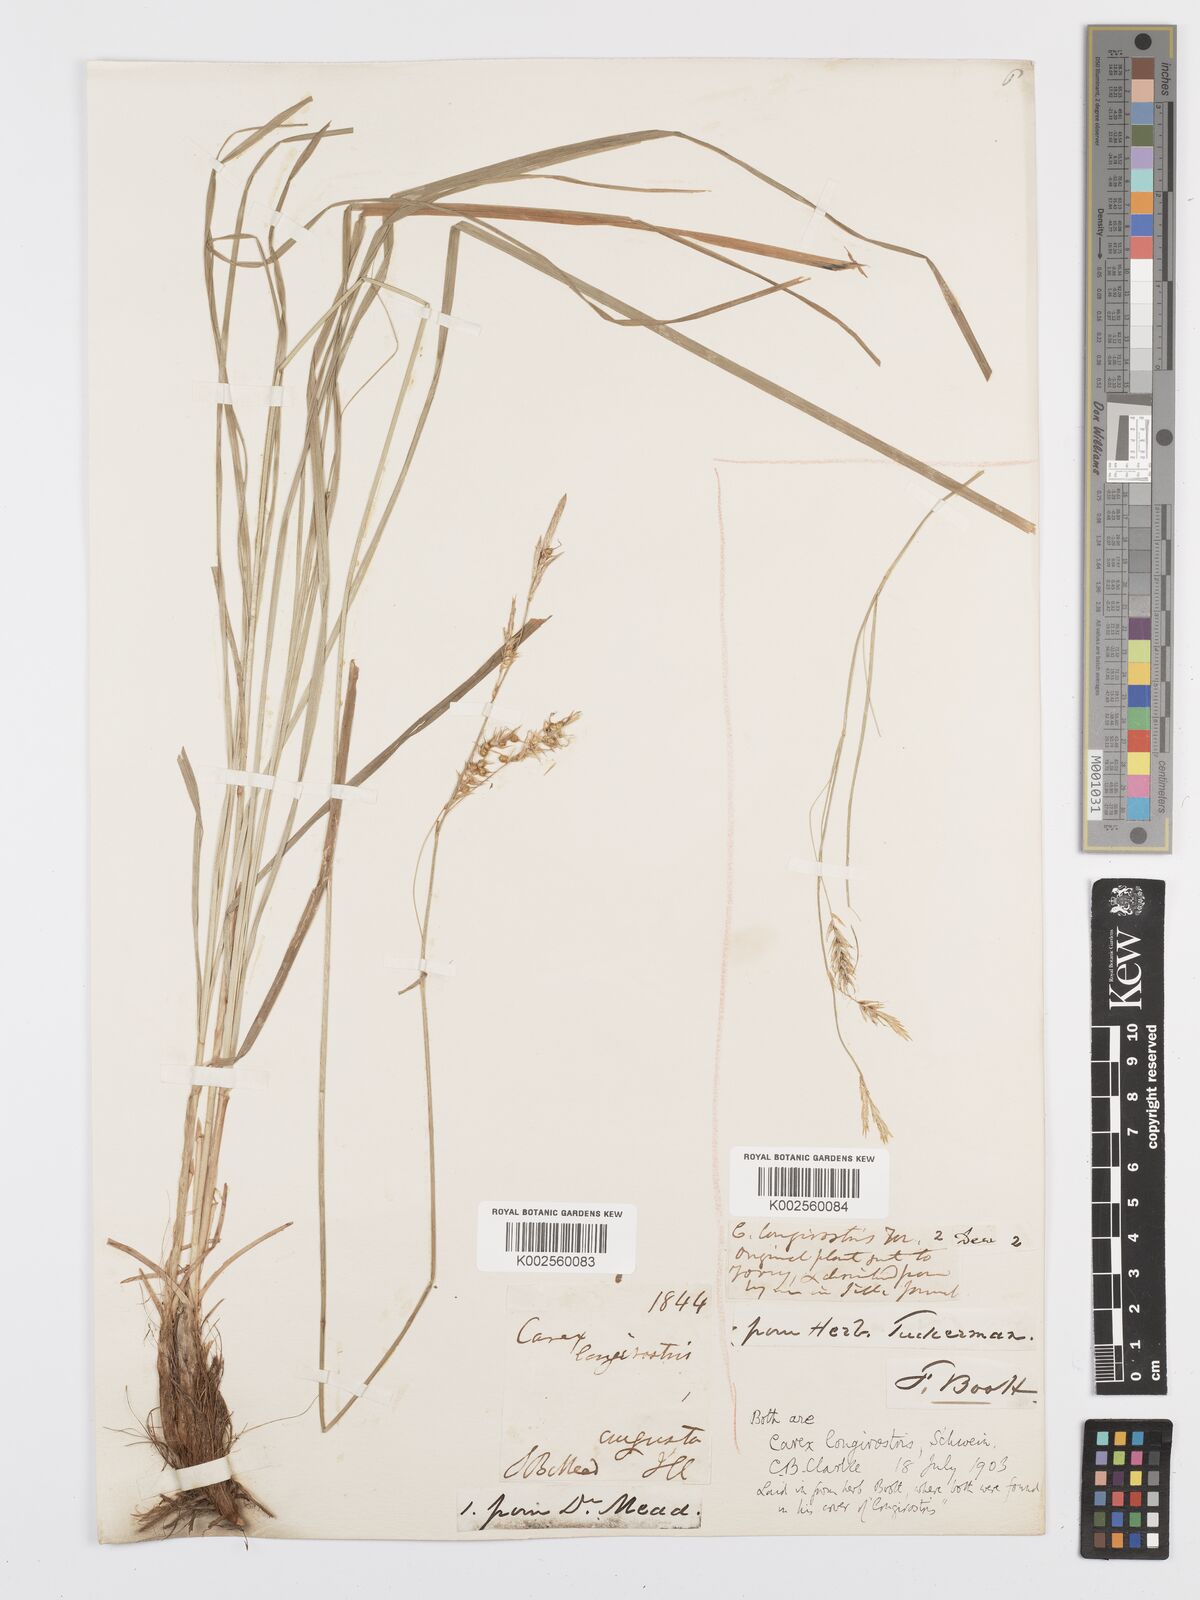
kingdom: Plantae
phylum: Tracheophyta
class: Liliopsida
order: Poales
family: Cyperaceae
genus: Carex
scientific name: Carex sprengelii
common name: Long-beaked sedge
